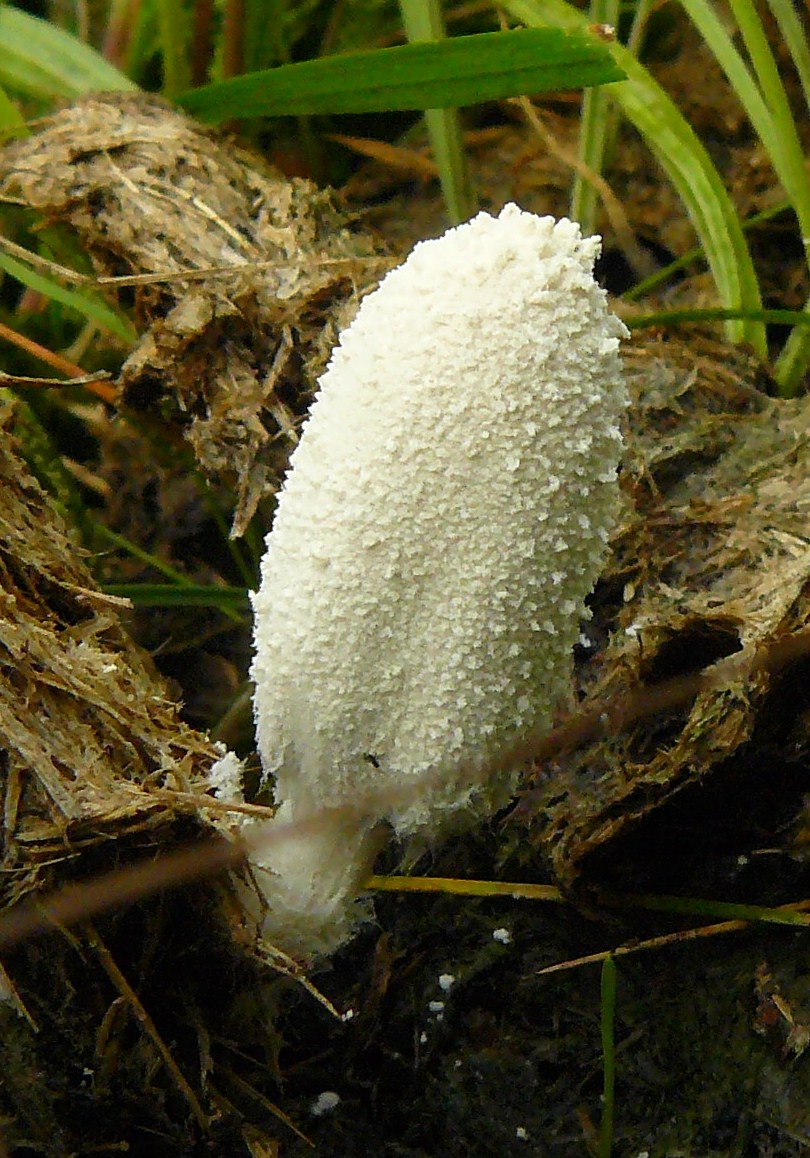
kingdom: Fungi
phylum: Basidiomycota
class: Agaricomycetes
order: Agaricales
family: Psathyrellaceae
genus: Coprinopsis
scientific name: Coprinopsis nivea
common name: snehvid blækhat
